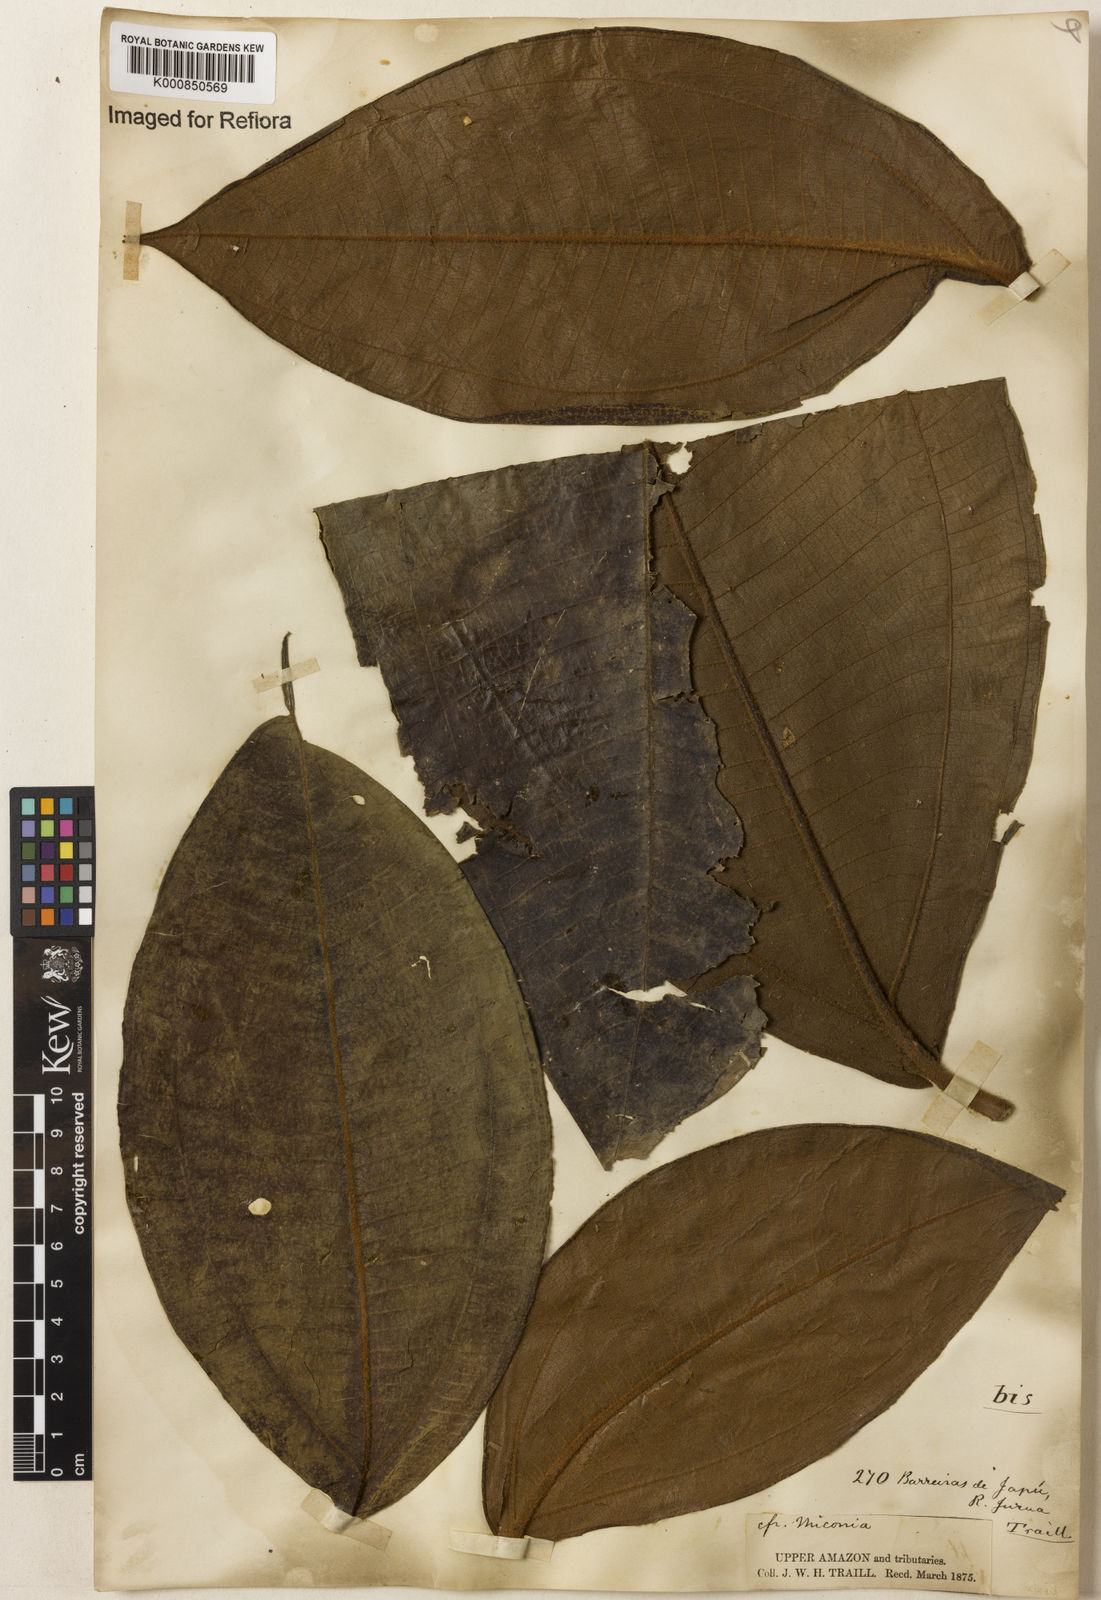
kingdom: Plantae
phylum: Tracheophyta
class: Magnoliopsida
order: Myrtales
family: Melastomataceae
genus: Miconia
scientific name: Miconia
